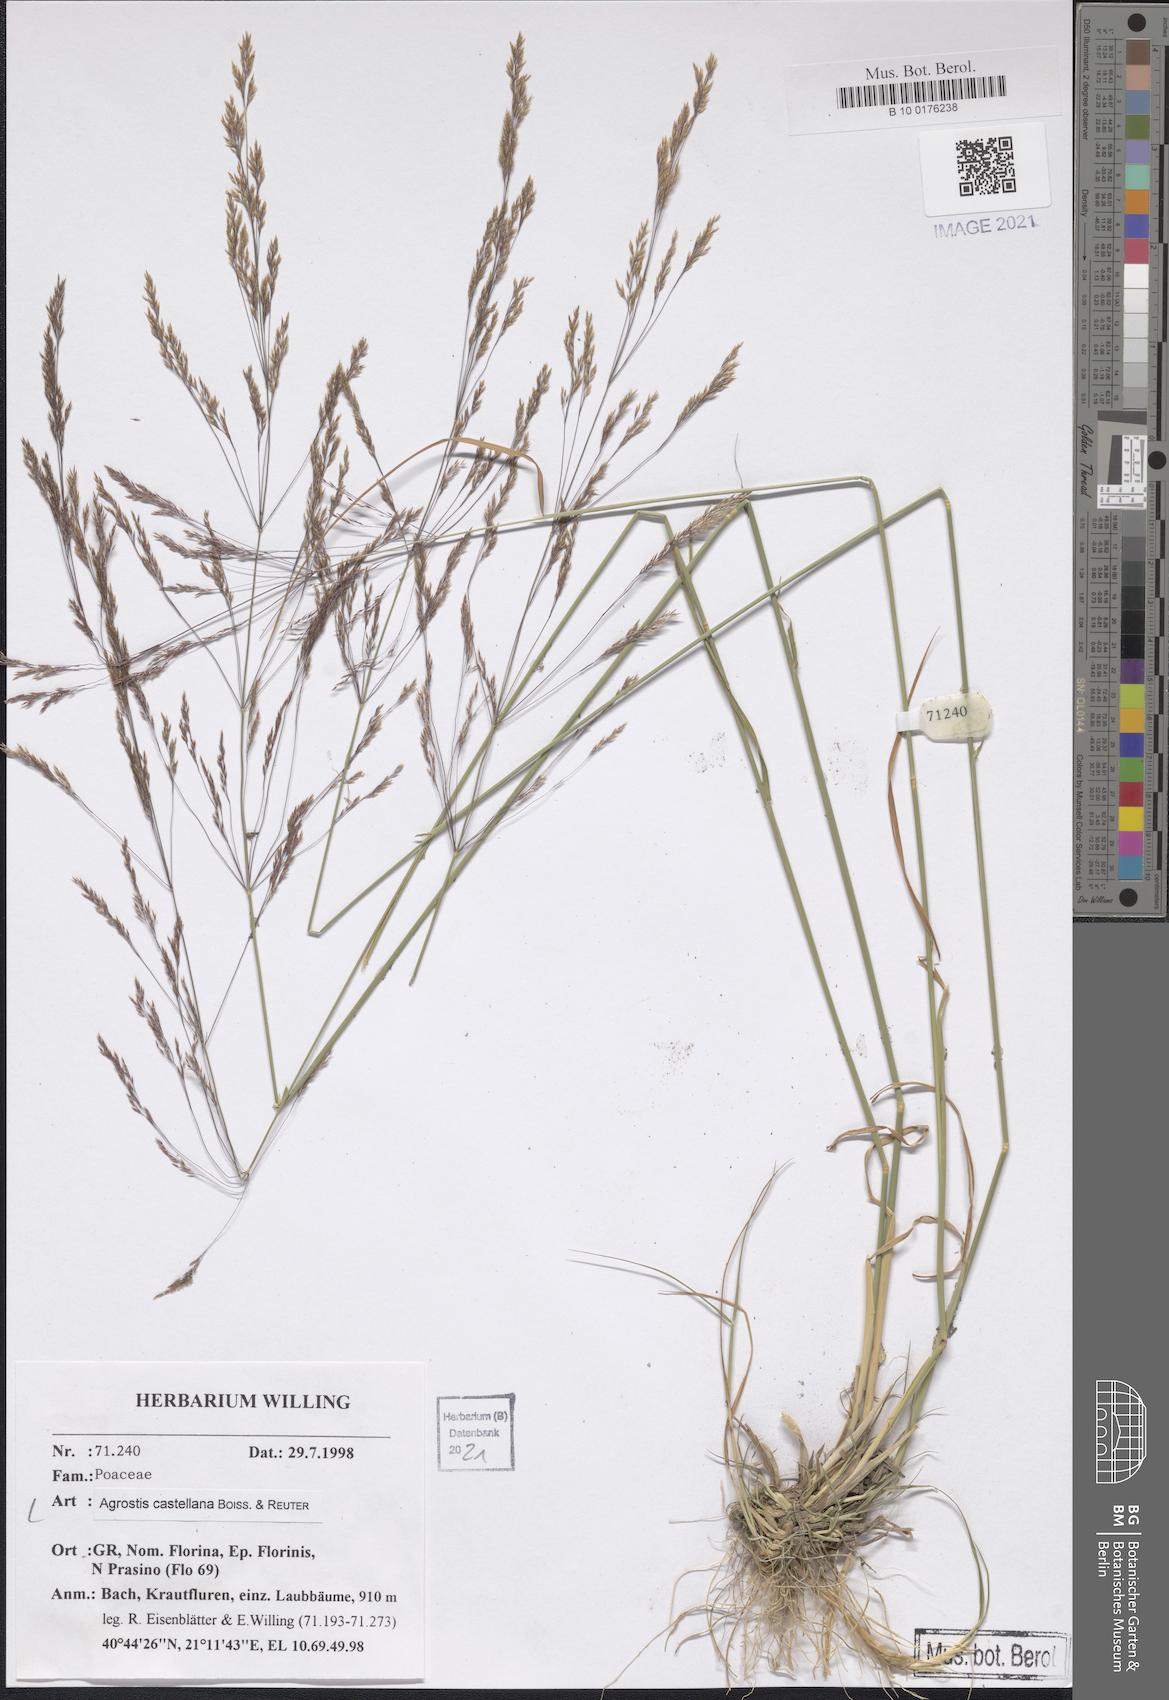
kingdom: Plantae
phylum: Tracheophyta
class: Liliopsida
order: Poales
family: Poaceae
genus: Agrostis
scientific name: Agrostis castellana
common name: Highland bent
